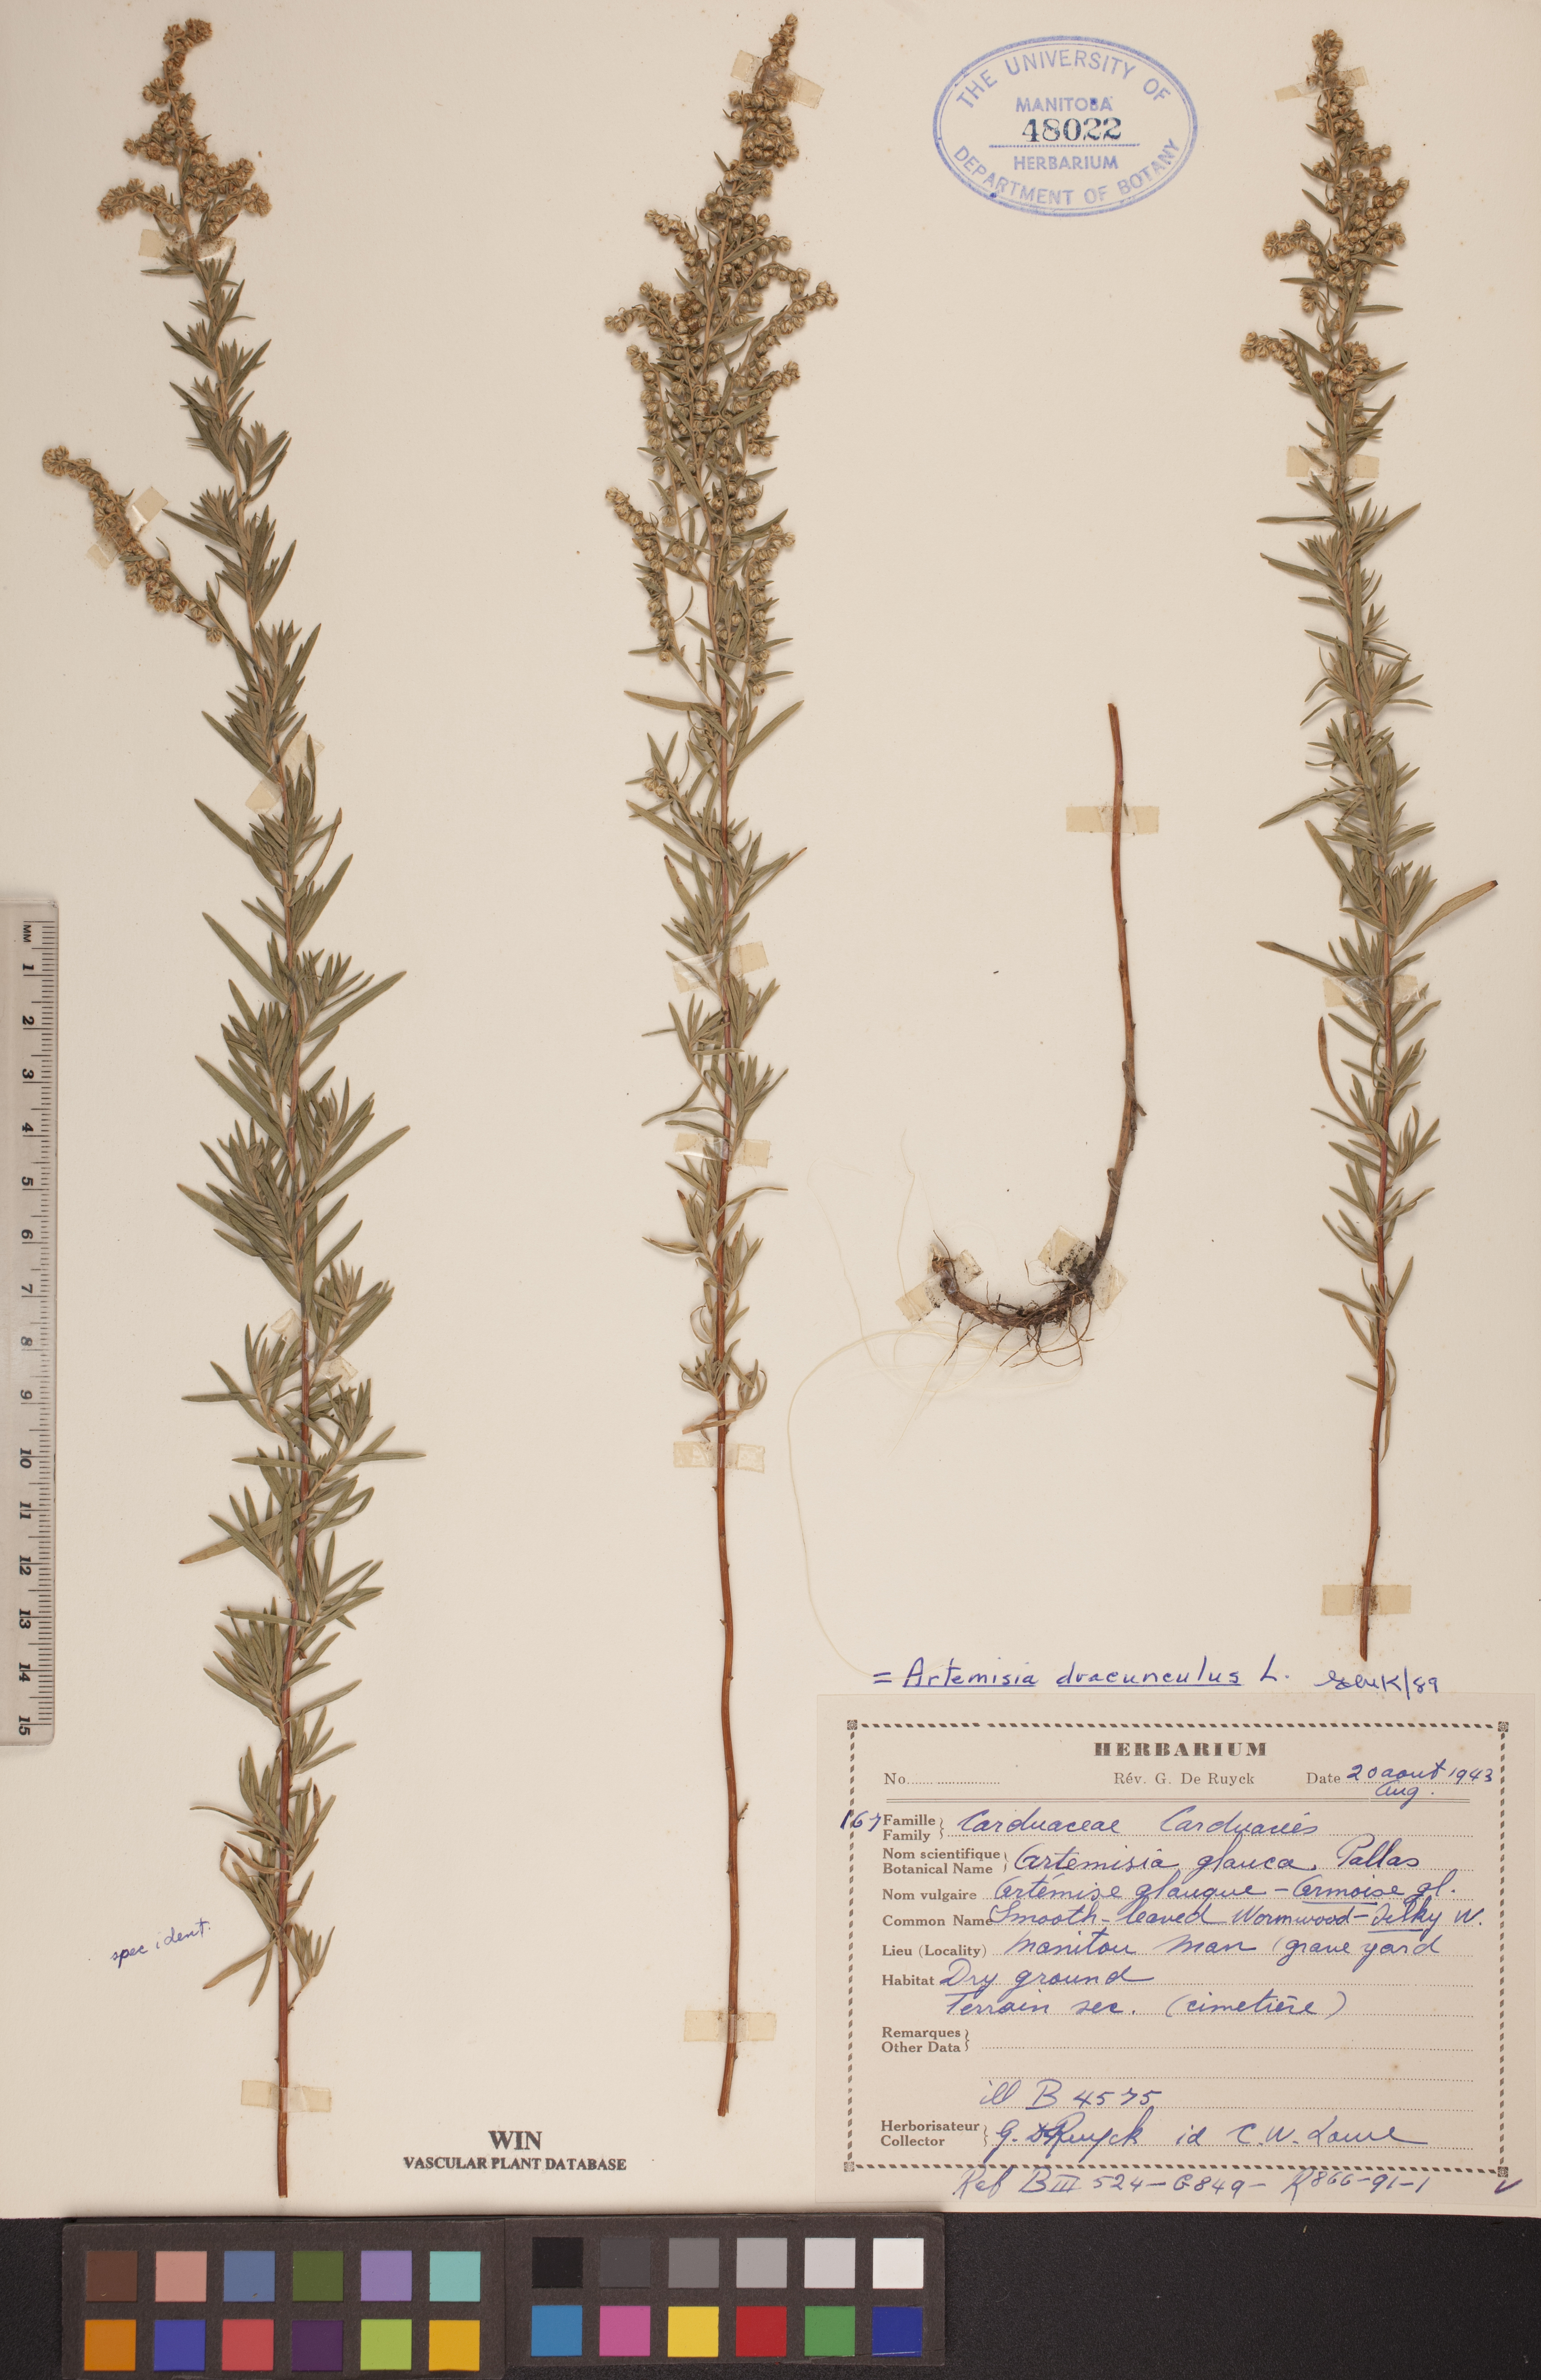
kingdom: Plantae
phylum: Tracheophyta
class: Magnoliopsida
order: Asterales
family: Asteraceae
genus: Artemisia
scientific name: Artemisia dracunculus
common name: Tarragon
